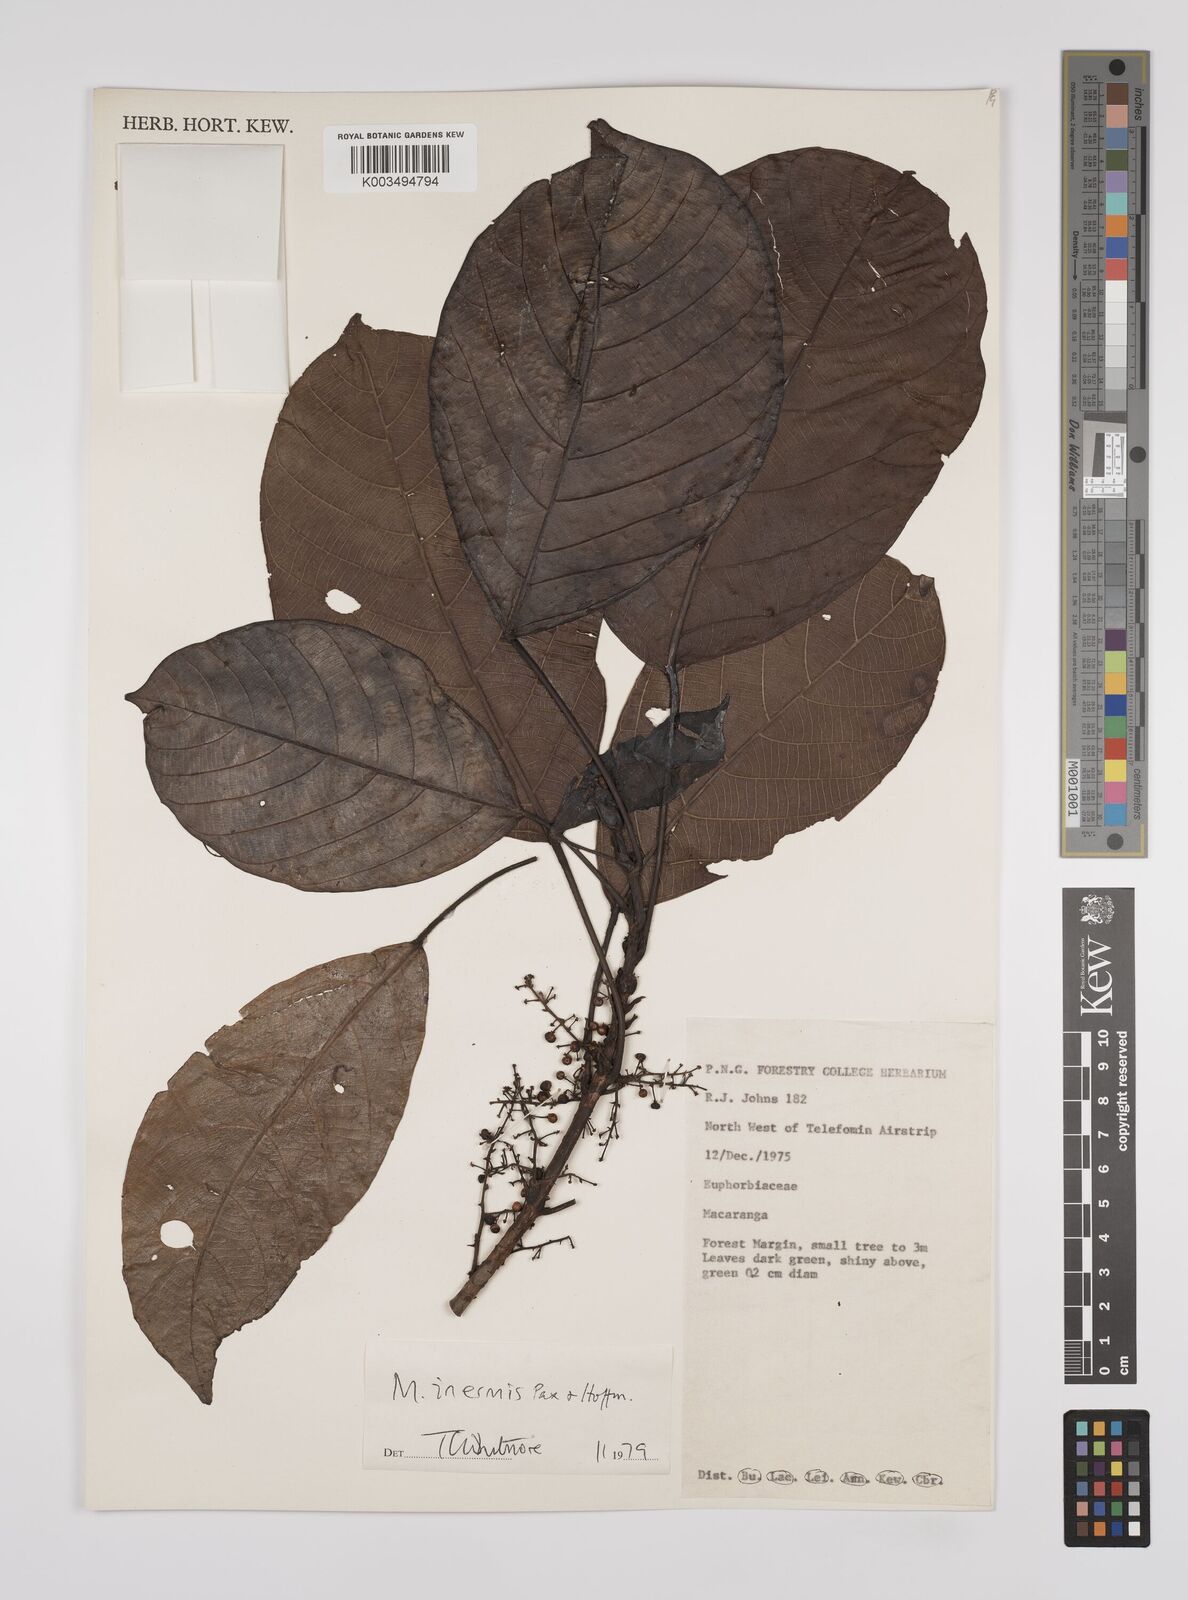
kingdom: Plantae
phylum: Tracheophyta
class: Magnoliopsida
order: Malpighiales
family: Euphorbiaceae
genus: Macaranga
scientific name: Macaranga inermis
